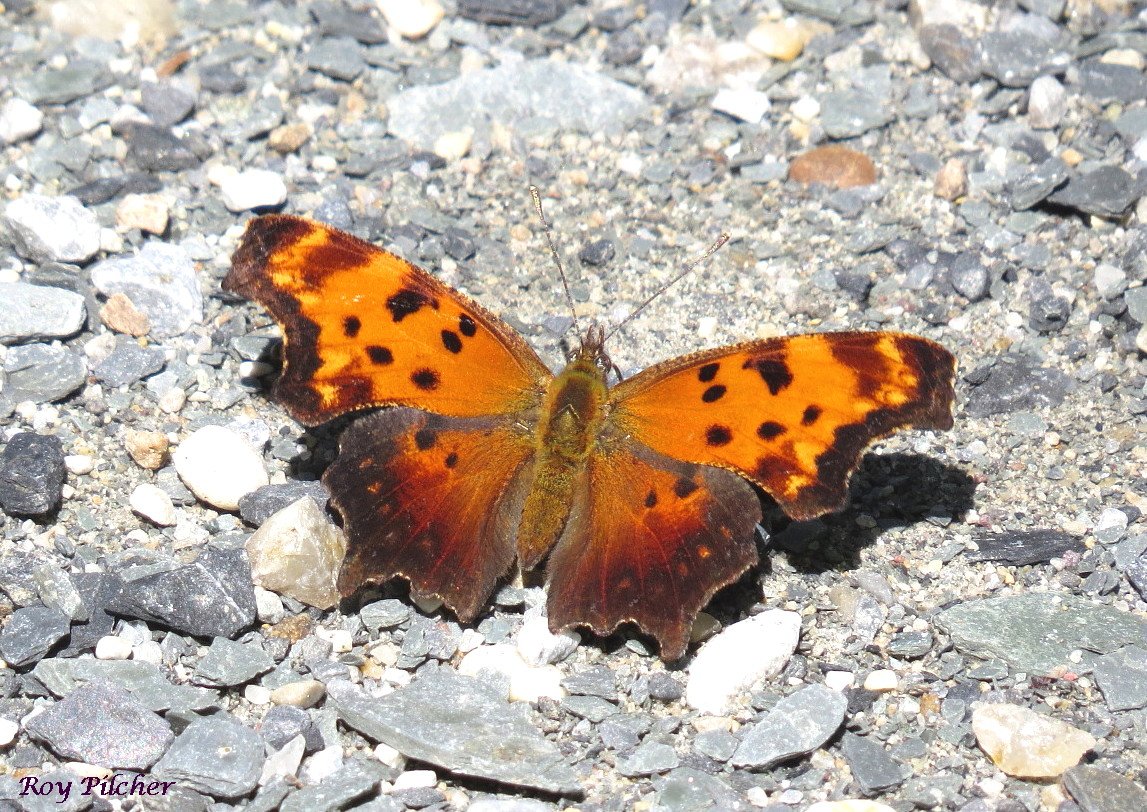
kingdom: Animalia
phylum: Arthropoda
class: Insecta
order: Lepidoptera
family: Nymphalidae
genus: Polygonia
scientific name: Polygonia comma
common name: Eastern Comma
